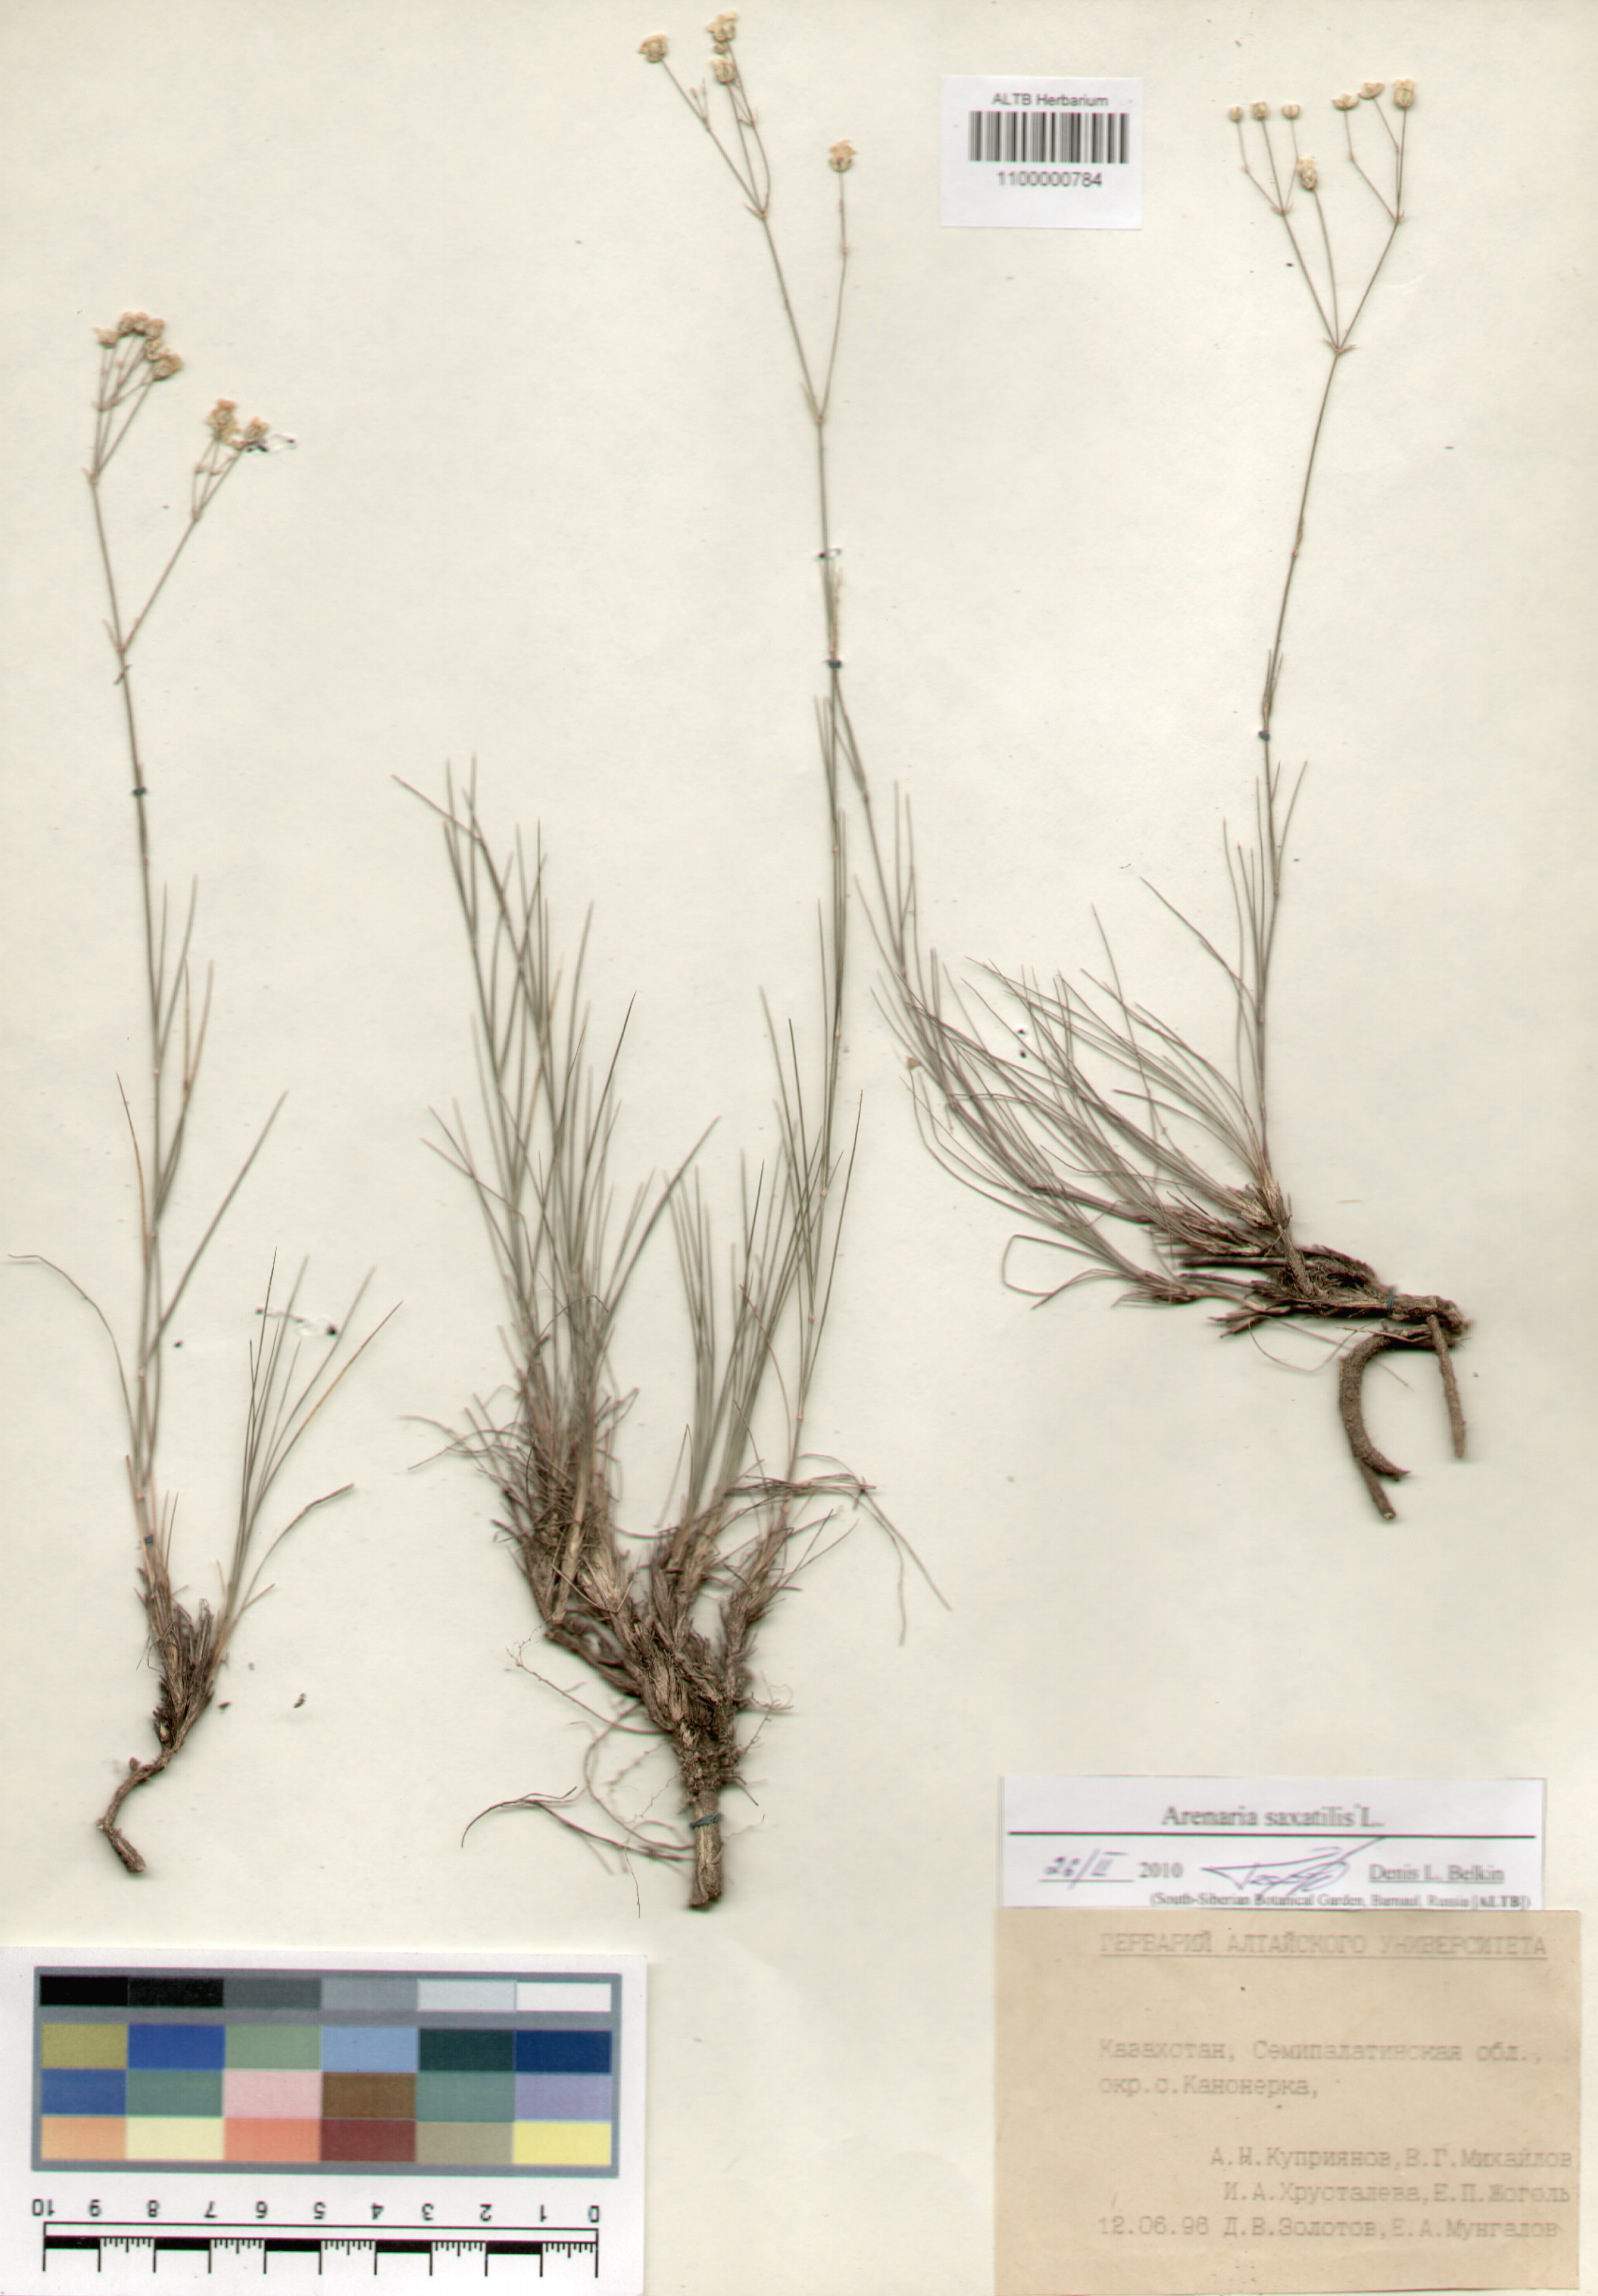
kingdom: Plantae
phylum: Tracheophyta
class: Magnoliopsida
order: Caryophyllales
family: Caryophyllaceae
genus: Eremogone
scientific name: Eremogone saxatilis
